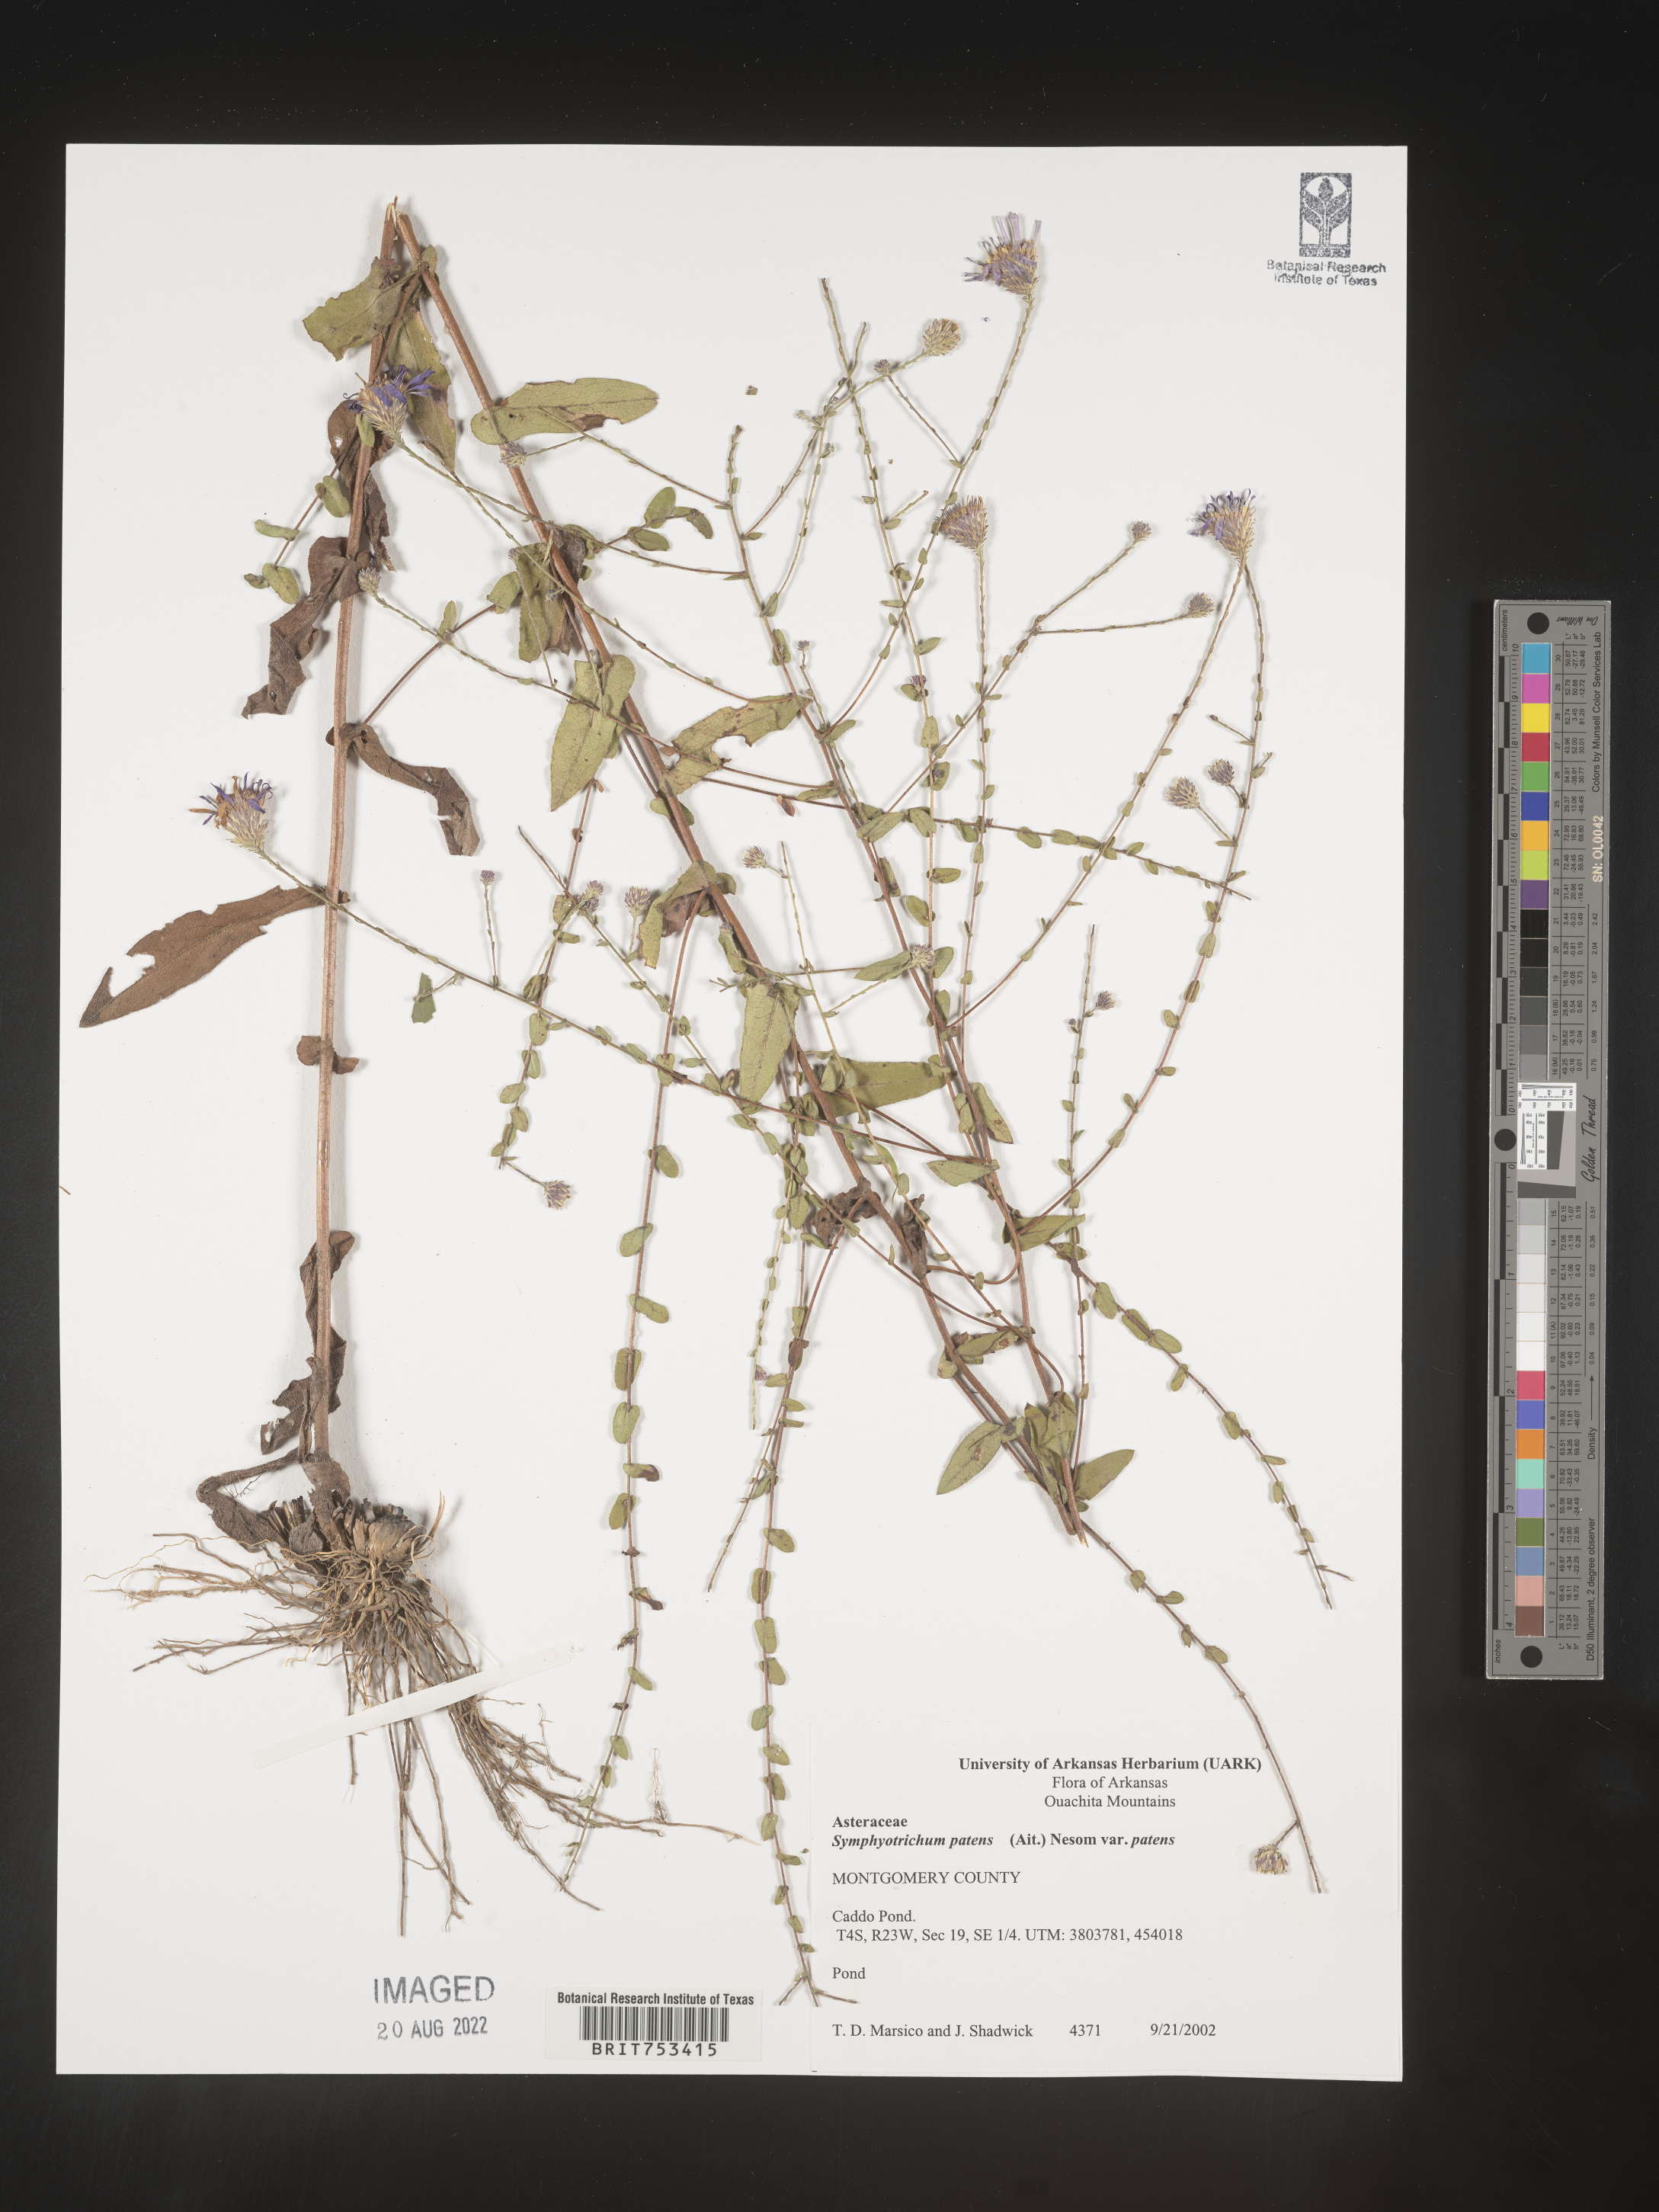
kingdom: Plantae
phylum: Tracheophyta
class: Magnoliopsida
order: Asterales
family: Asteraceae
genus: Symphyotrichum
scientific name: Symphyotrichum patens
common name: Late purple aster
